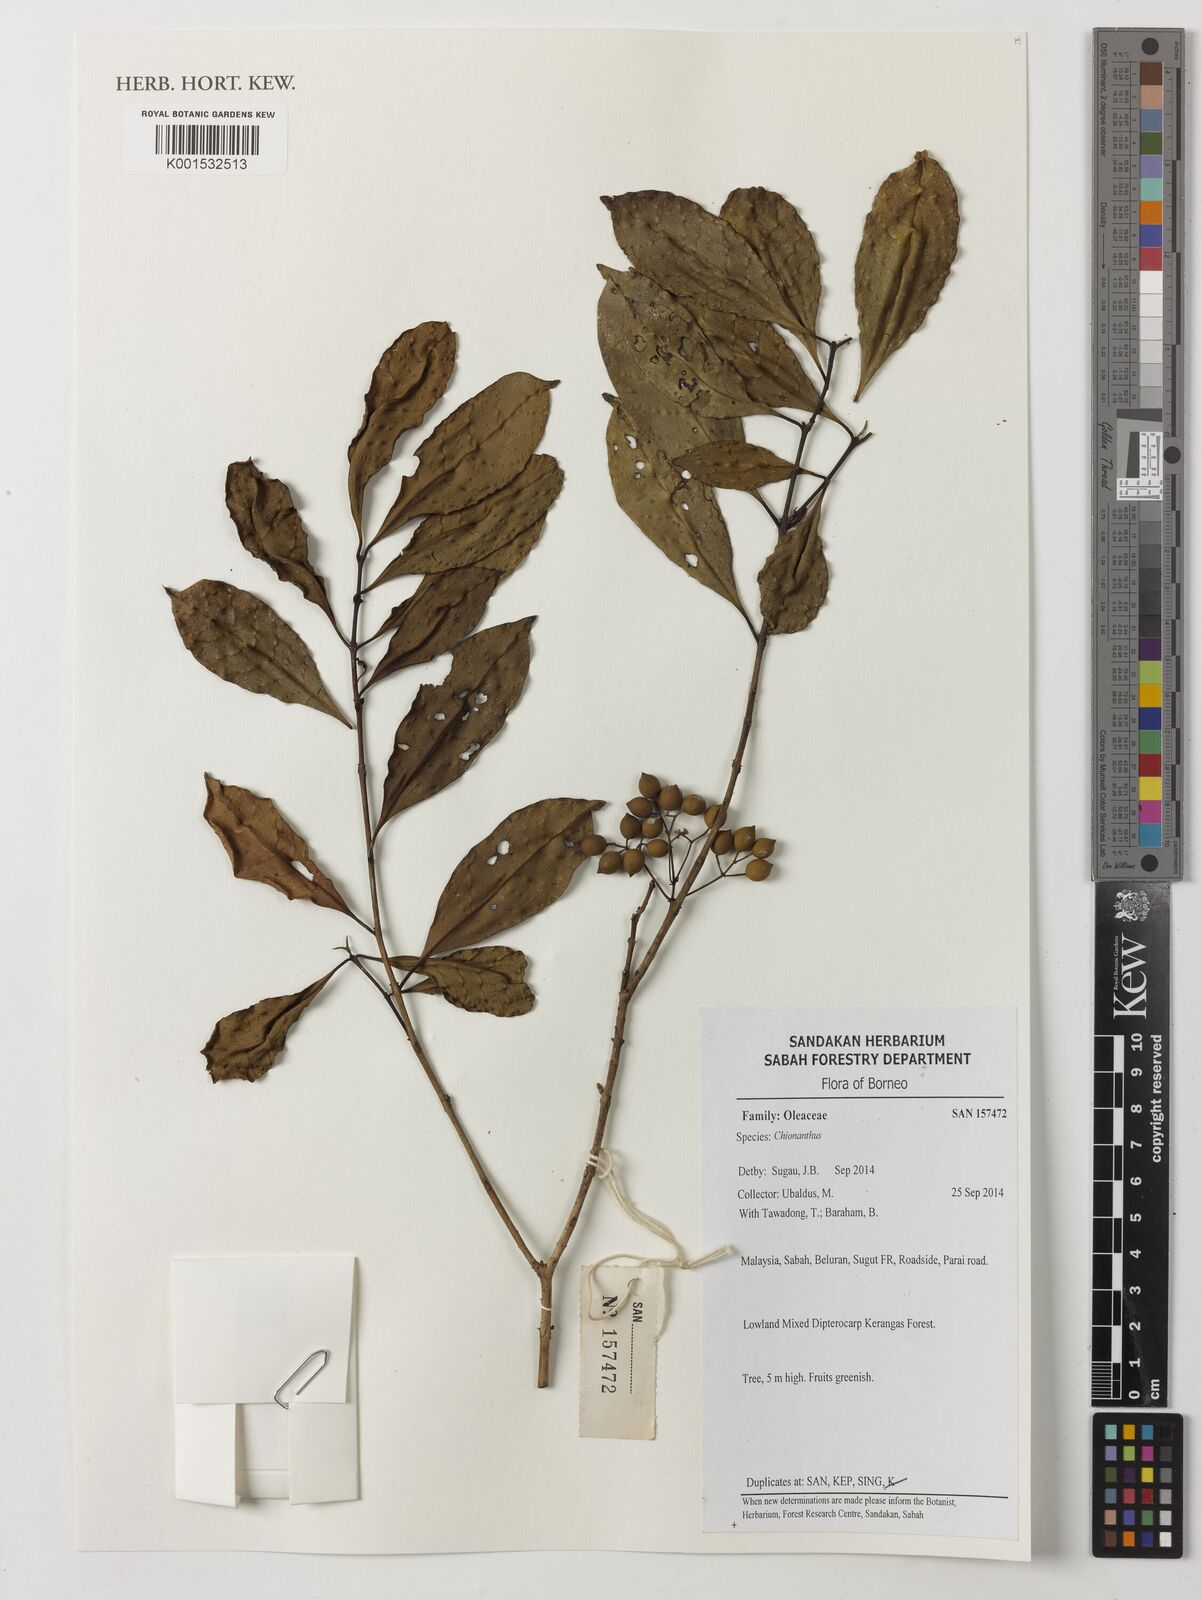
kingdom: Plantae
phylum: Tracheophyta
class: Magnoliopsida
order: Lamiales
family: Oleaceae
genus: Chionanthus
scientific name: Chionanthus
